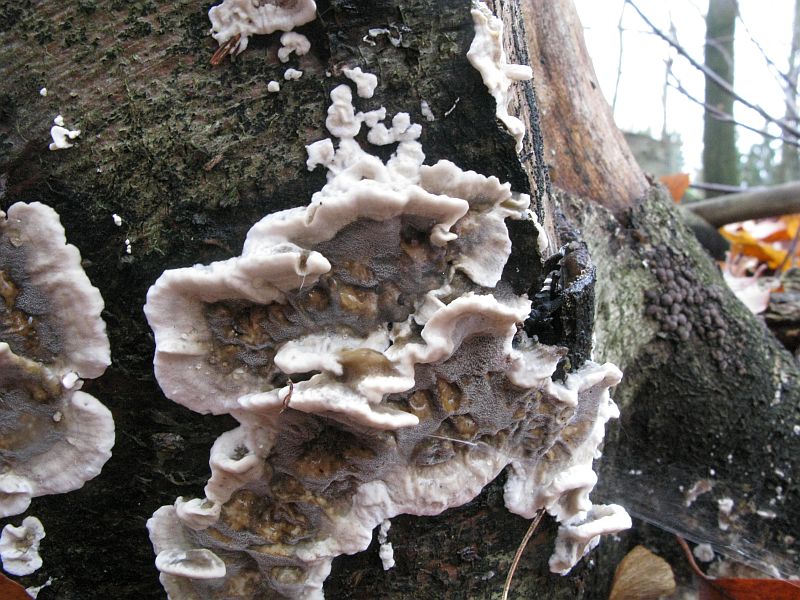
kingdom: Fungi
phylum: Basidiomycota
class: Agaricomycetes
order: Agaricales
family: Cyphellaceae
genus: Chondrostereum
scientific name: Chondrostereum purpureum
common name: purpurlædersvamp
